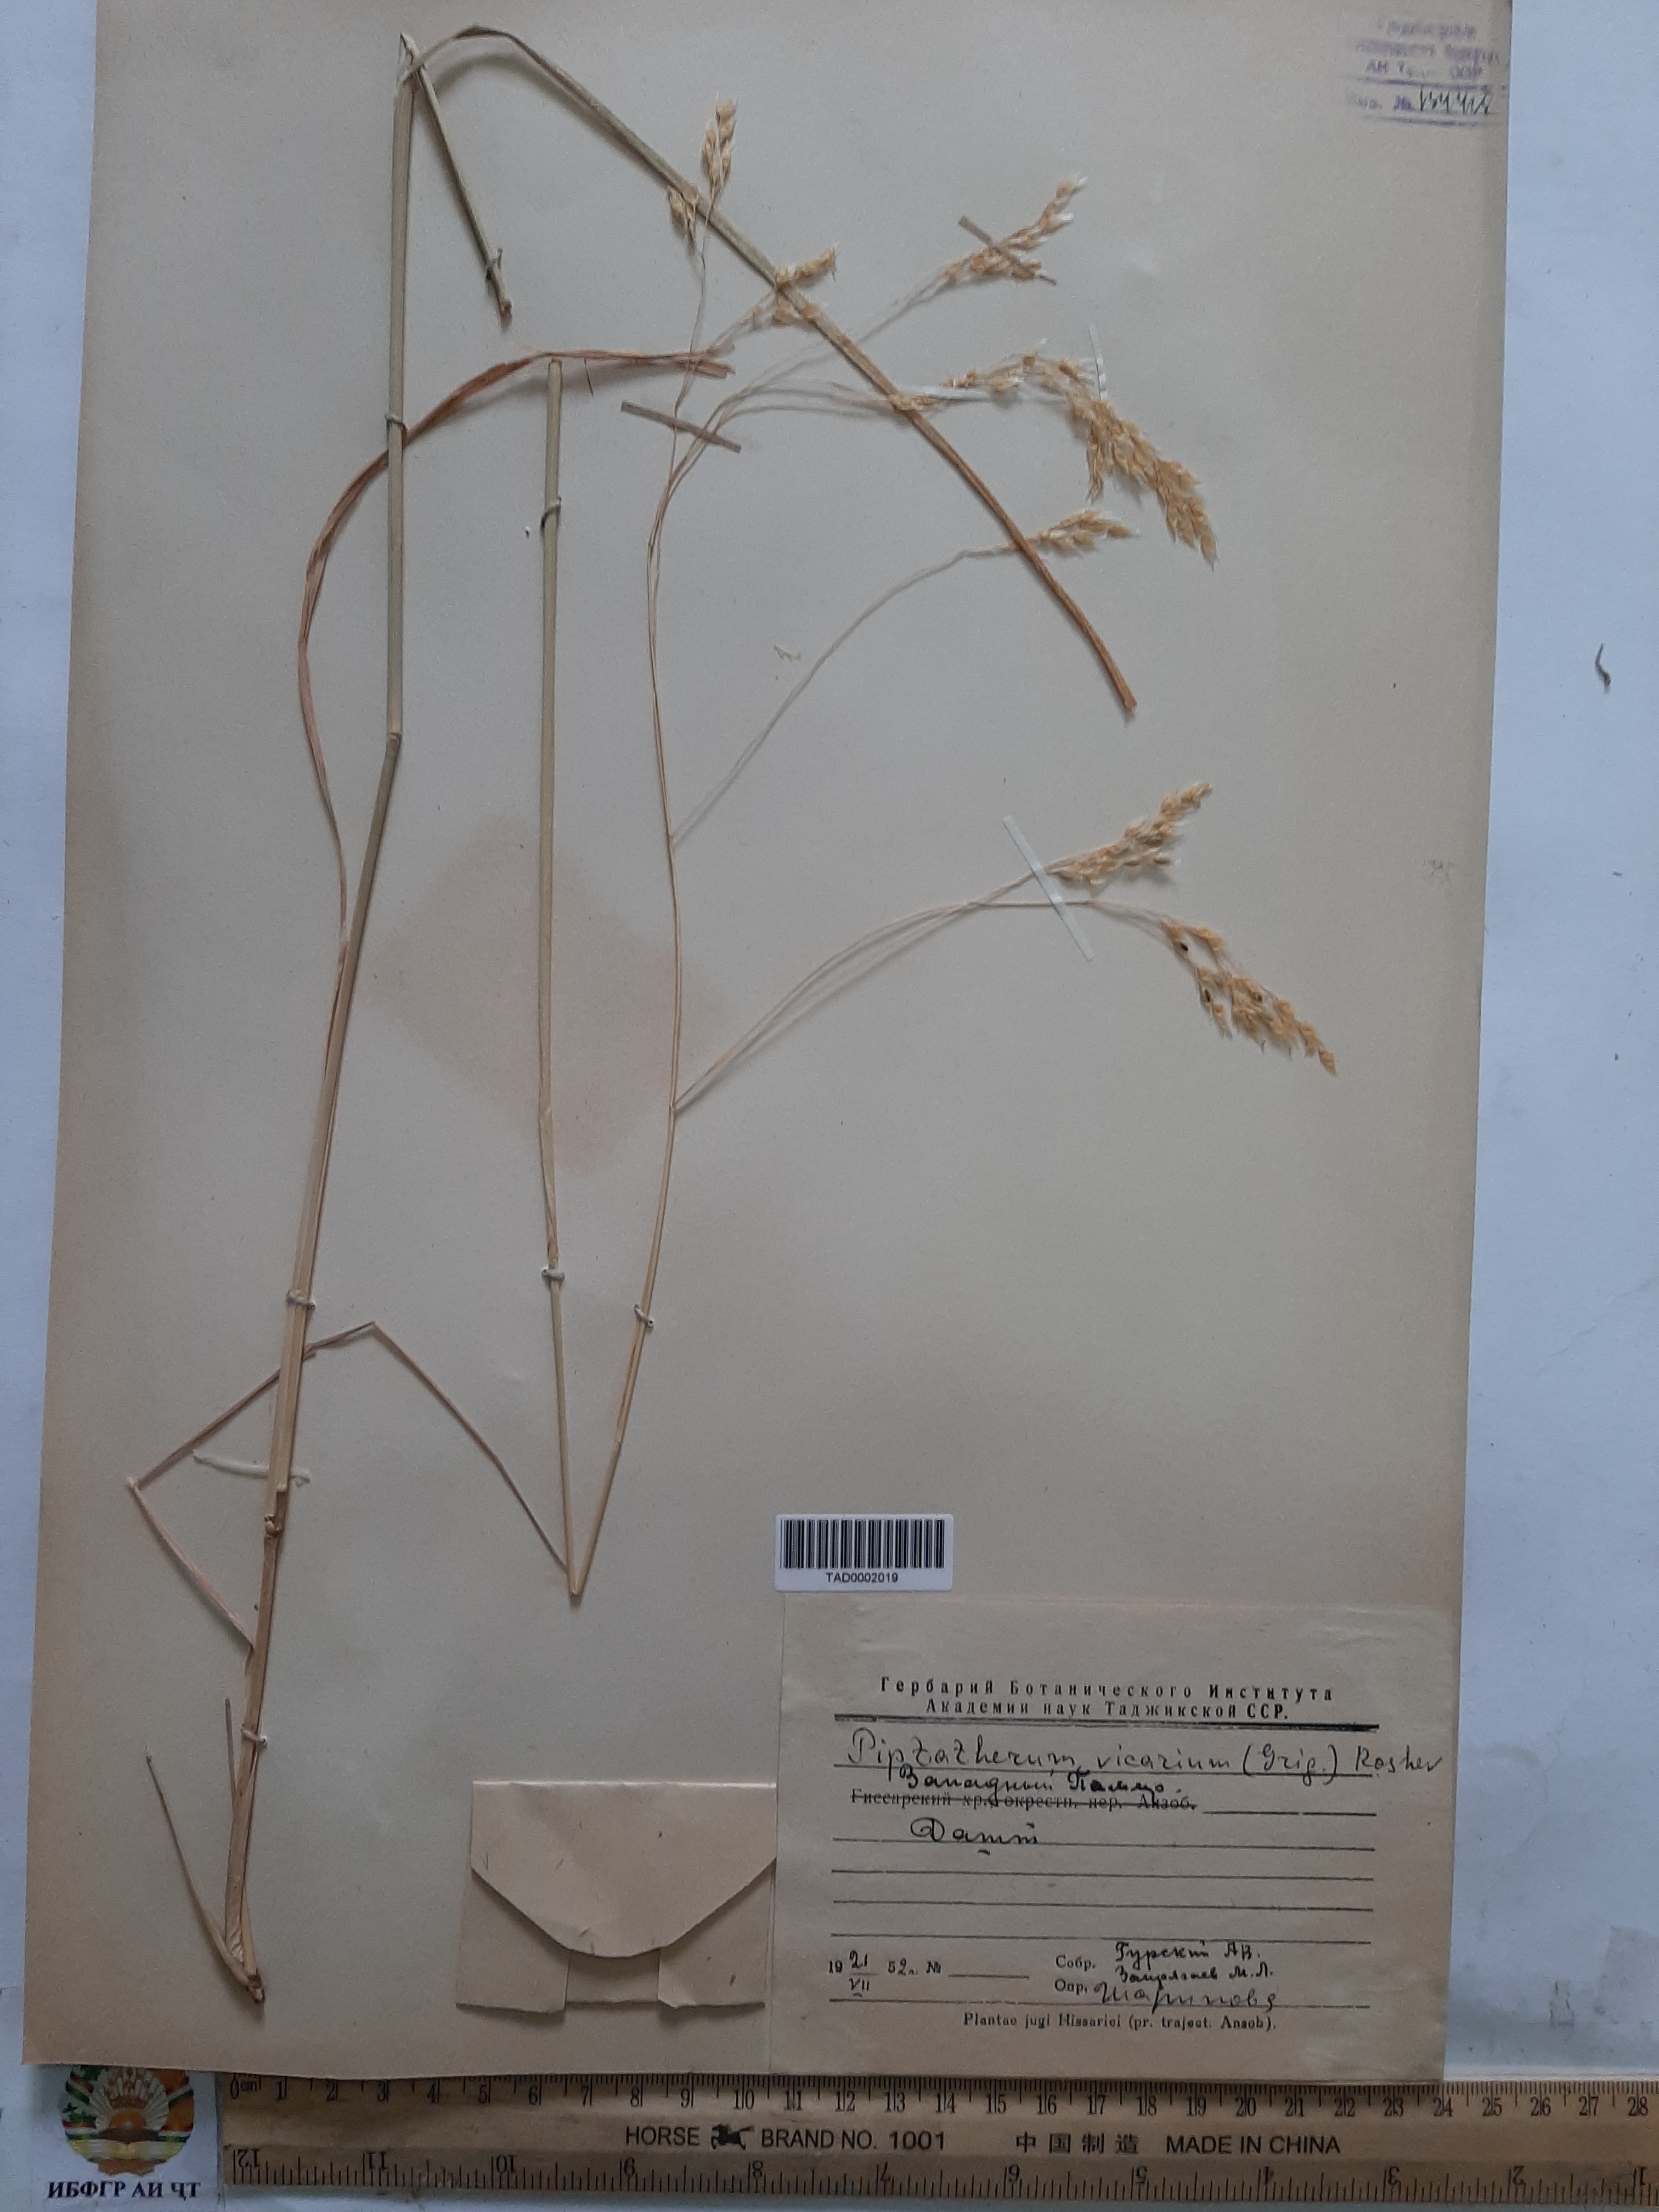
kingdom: Plantae
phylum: Tracheophyta
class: Liliopsida
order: Poales
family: Poaceae
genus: Piptatherum
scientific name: Piptatherum microcarpum
